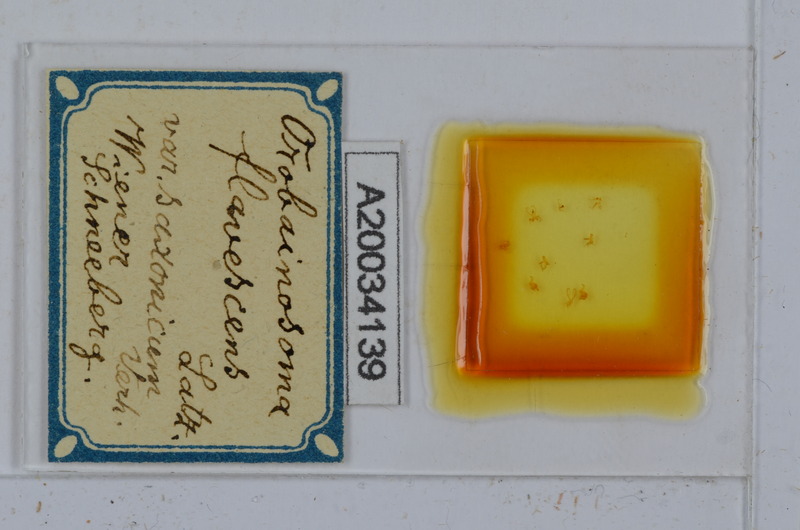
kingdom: Animalia
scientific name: Animalia
